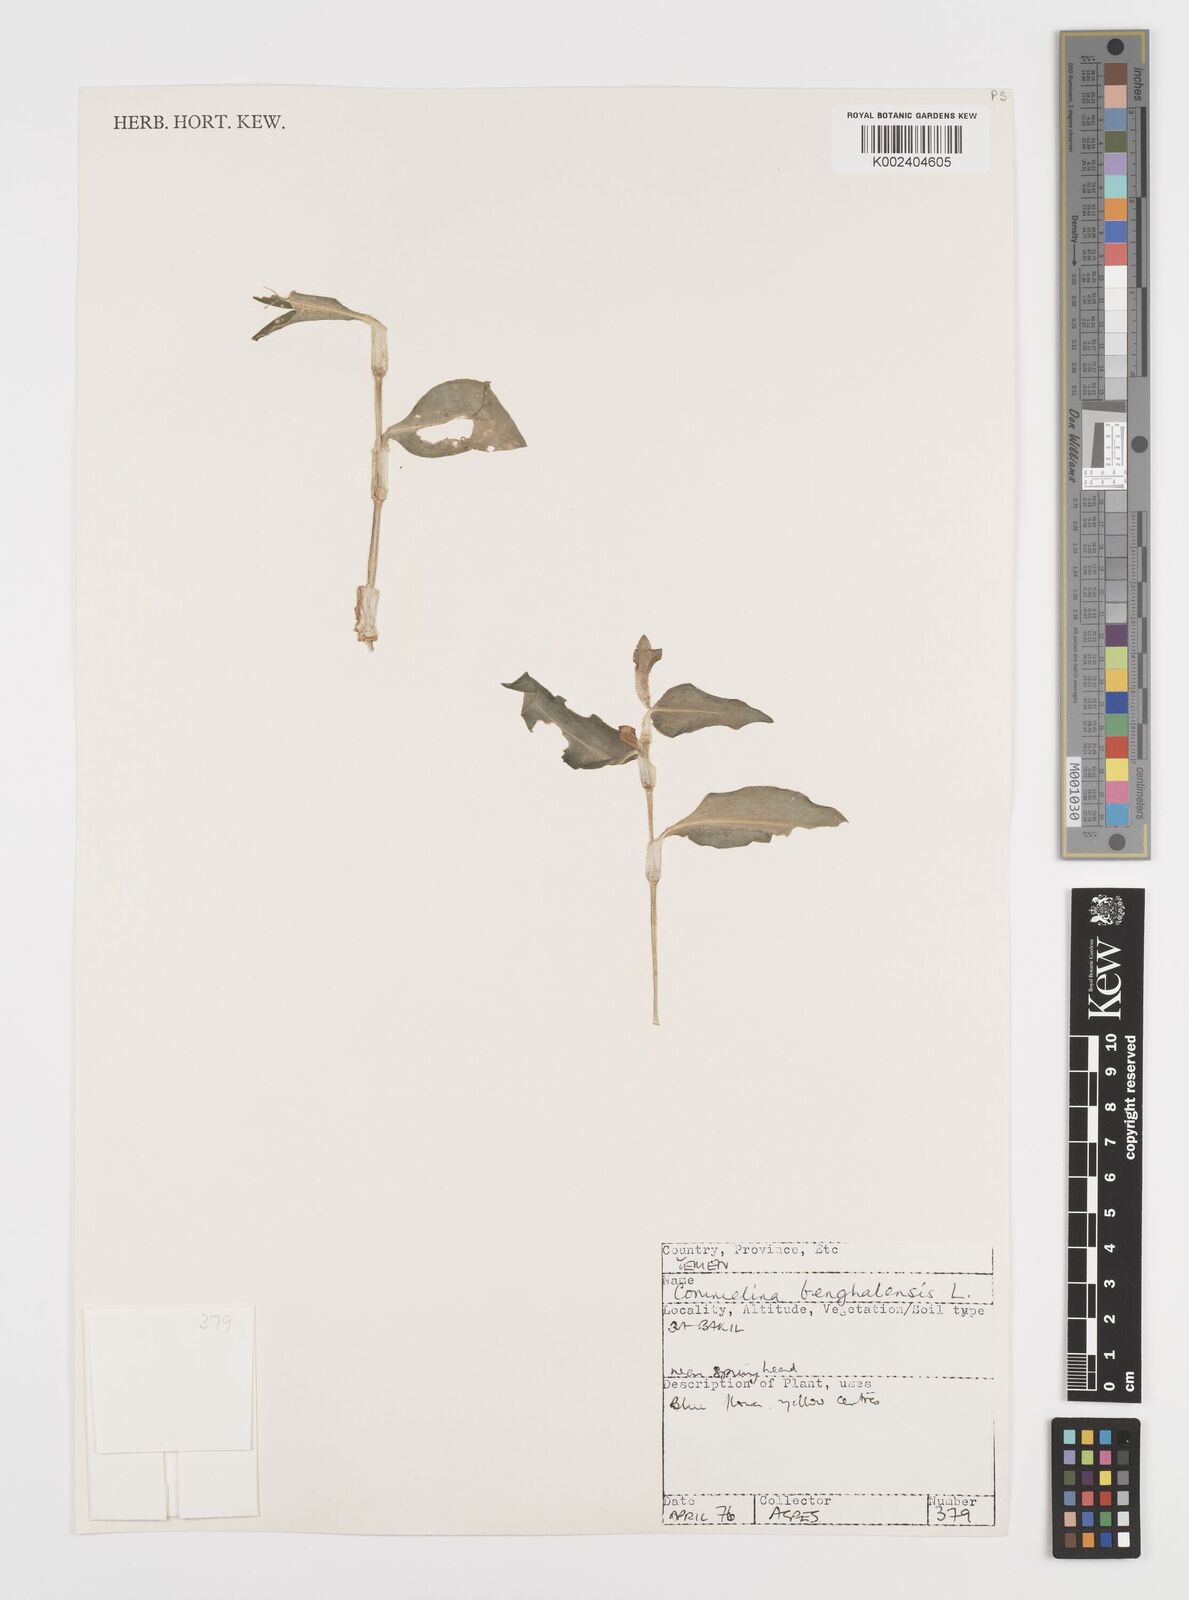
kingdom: Plantae
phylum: Tracheophyta
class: Liliopsida
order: Commelinales
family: Commelinaceae
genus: Commelina
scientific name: Commelina benghalensis
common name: Jio
